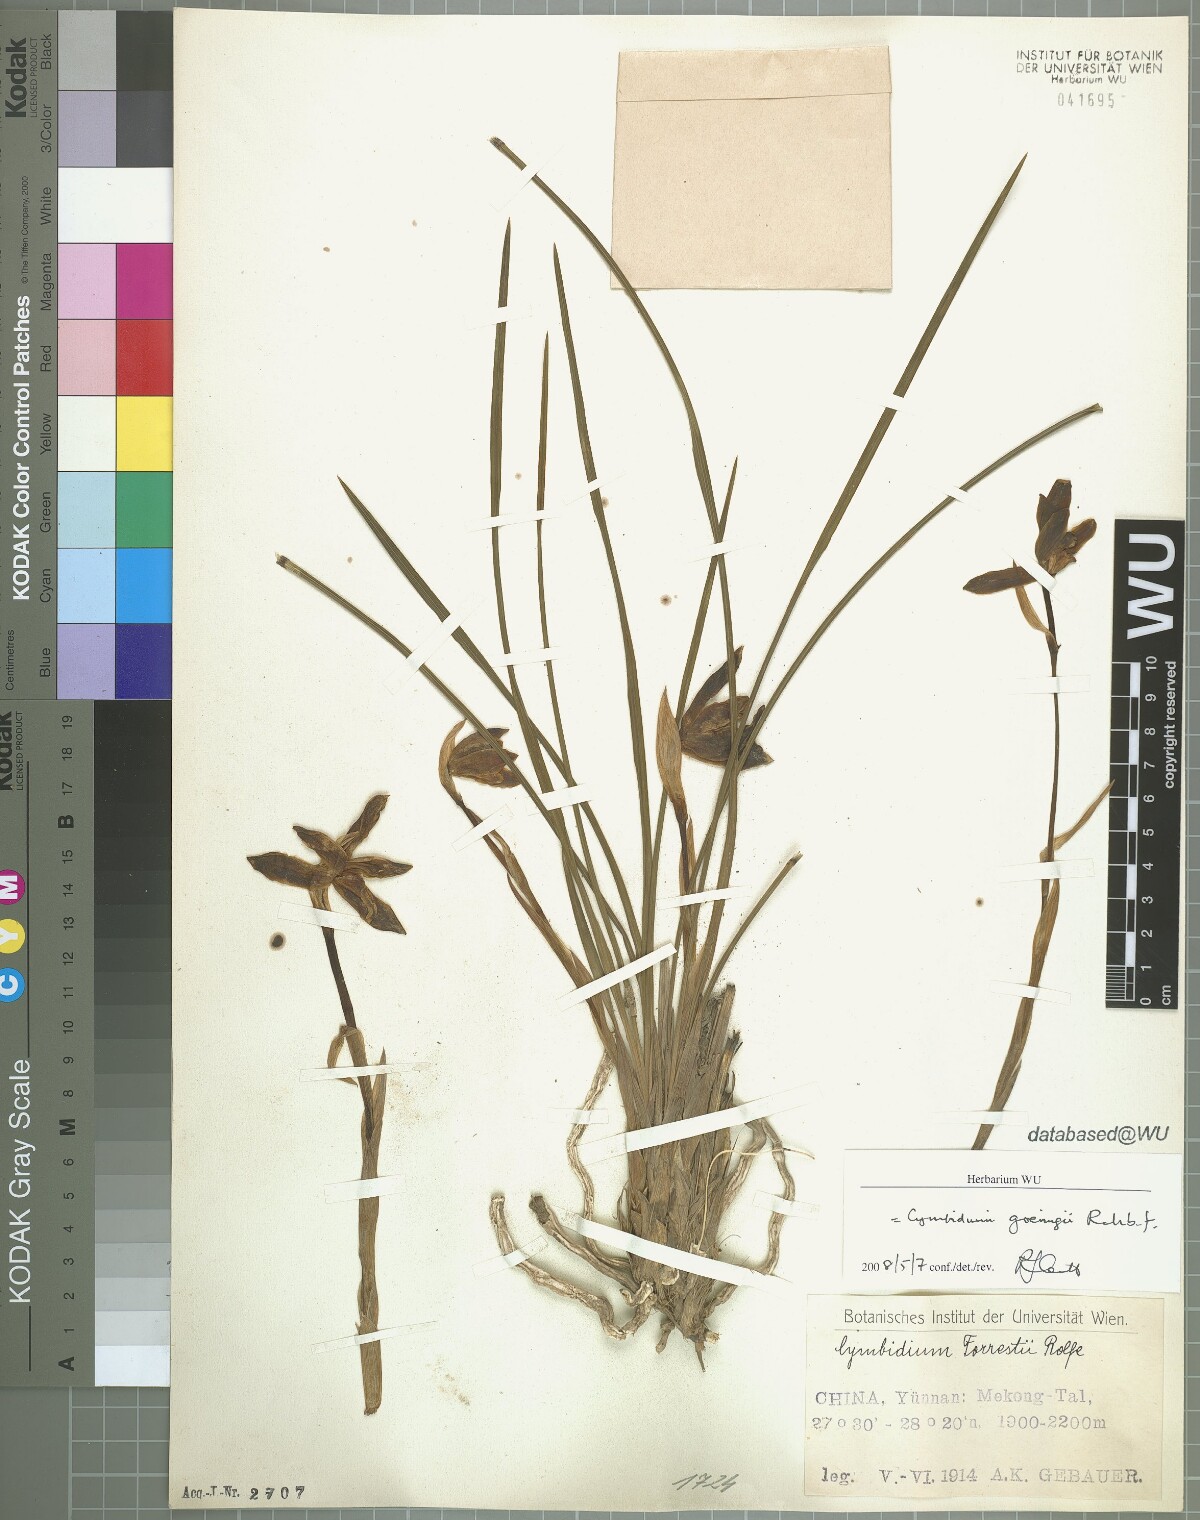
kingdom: Plantae
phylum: Tracheophyta
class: Liliopsida
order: Asparagales
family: Orchidaceae
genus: Cymbidium
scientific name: Cymbidium goeringii
